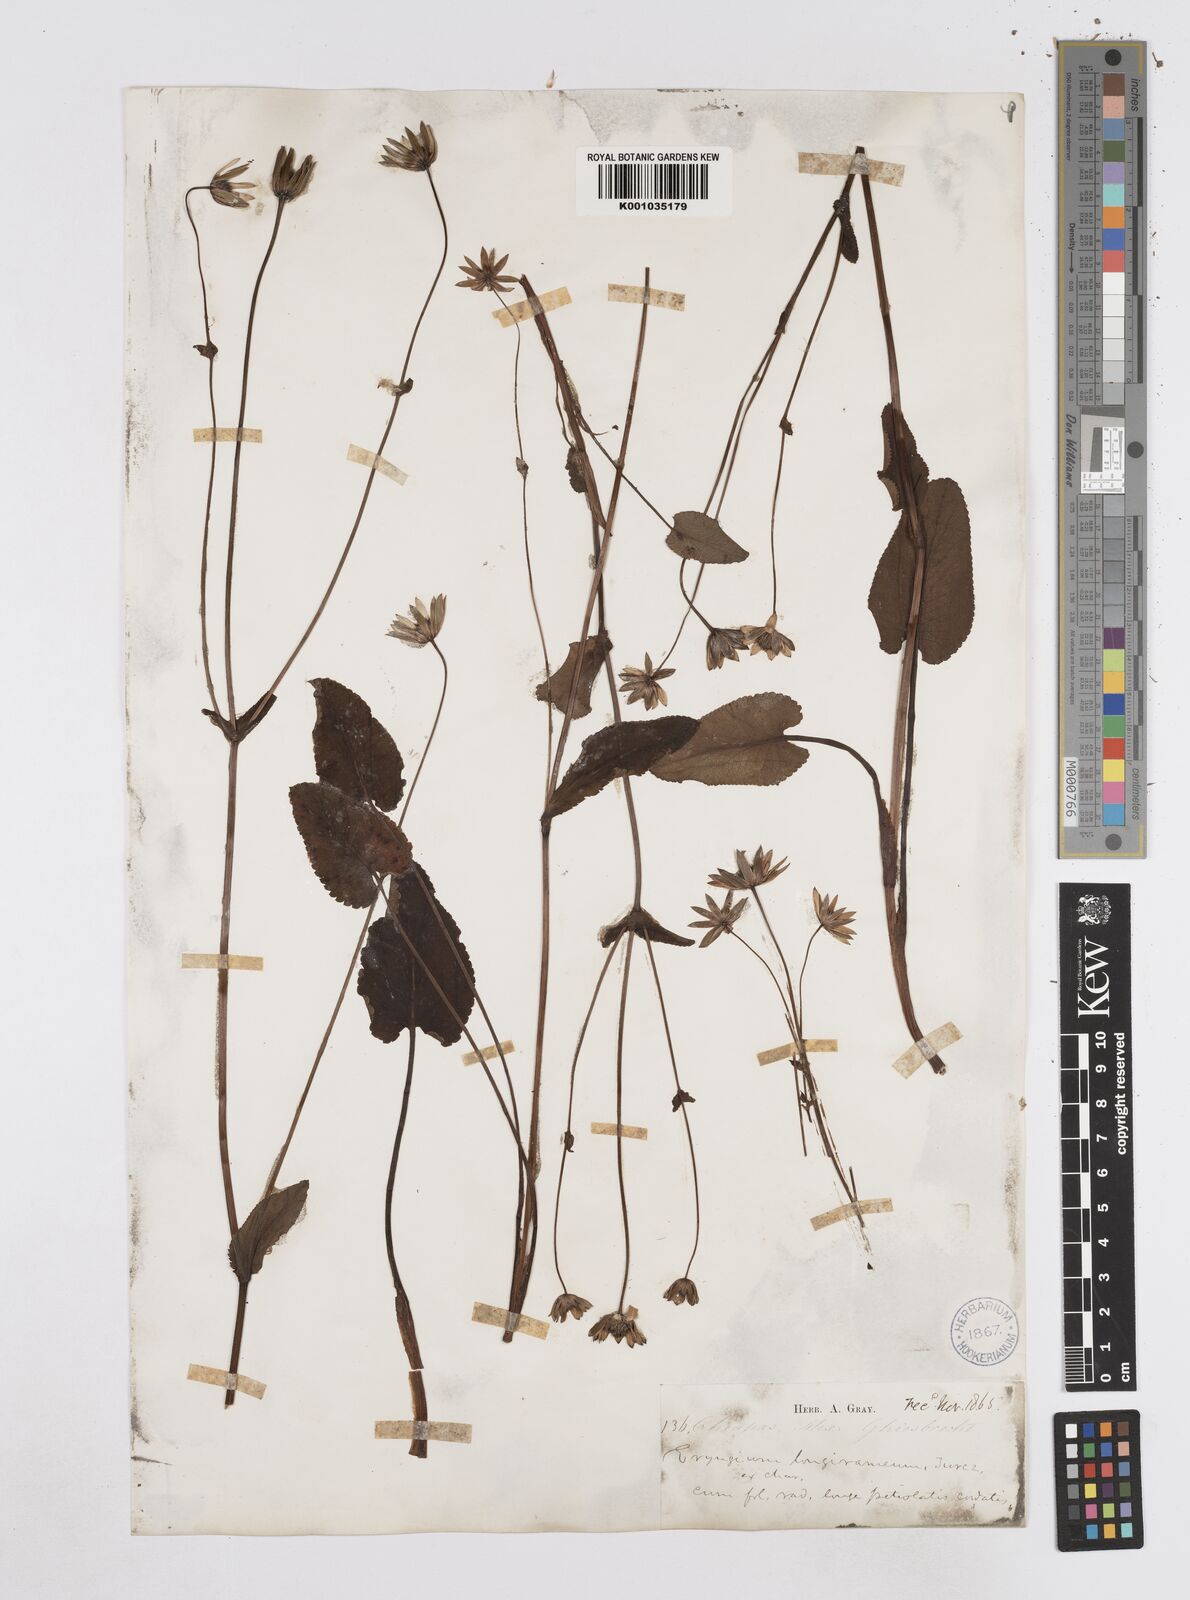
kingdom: Plantae
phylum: Tracheophyta
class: Magnoliopsida
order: Apiales
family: Apiaceae
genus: Eryngium
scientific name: Eryngium gracile
